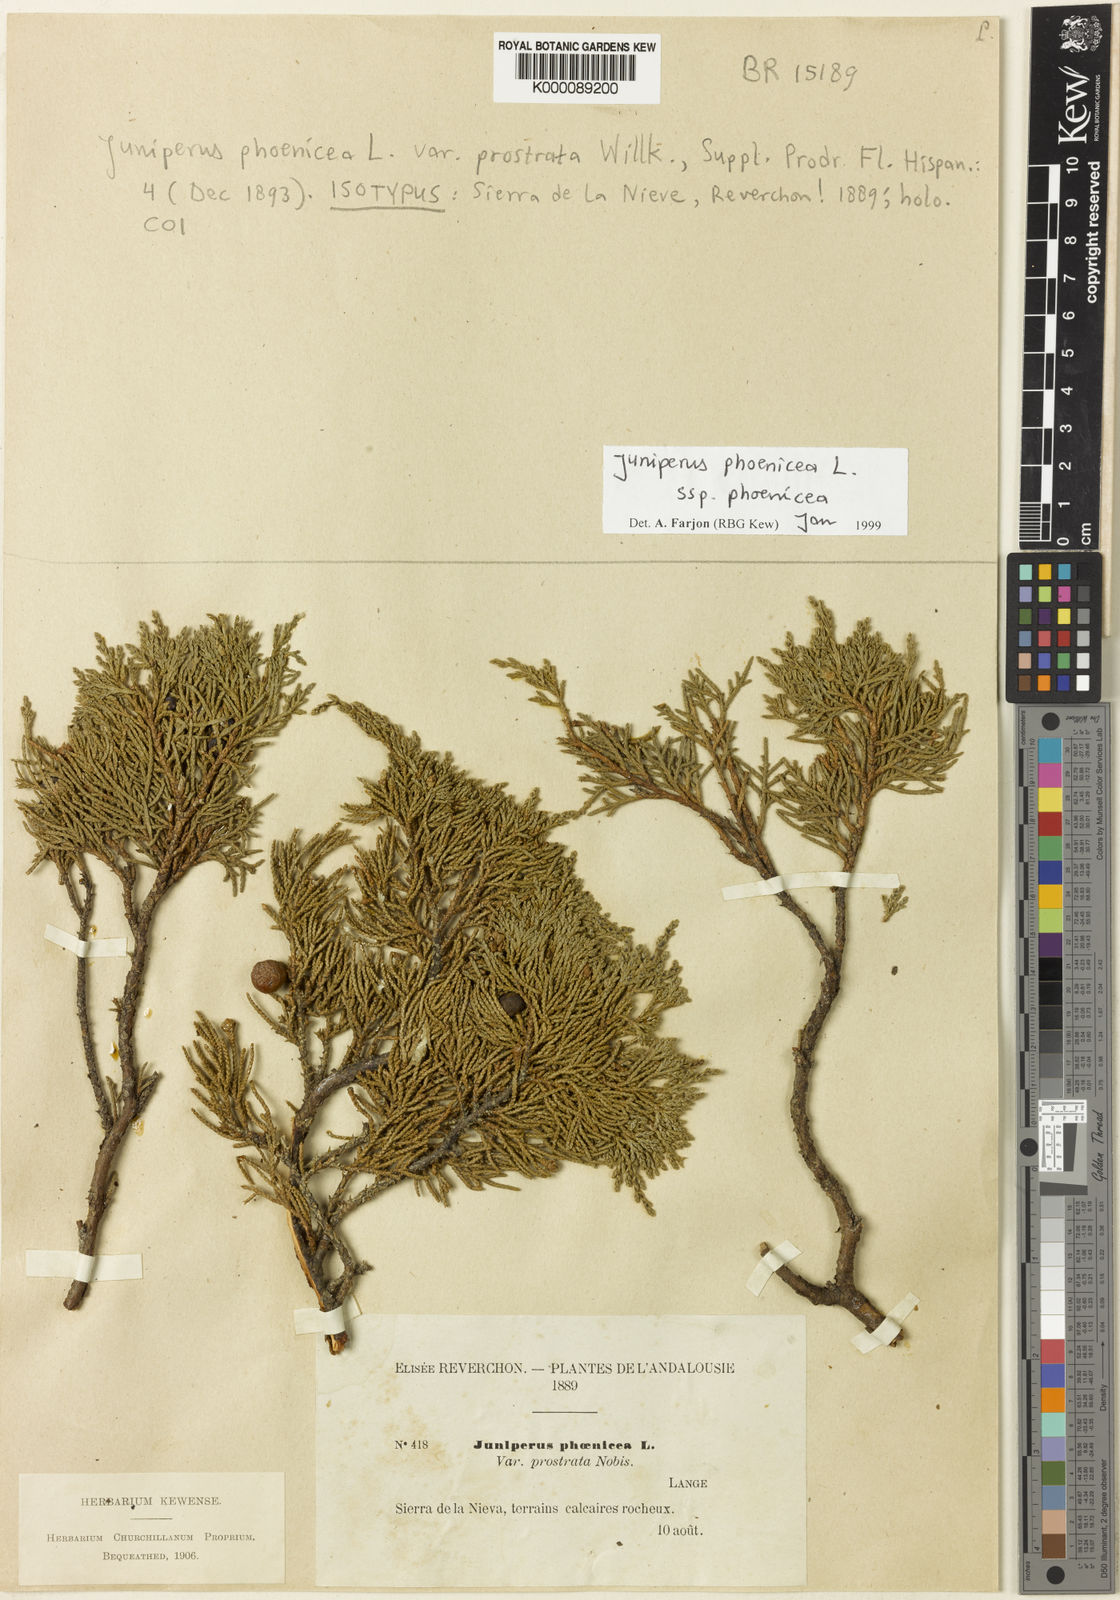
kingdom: Plantae
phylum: Tracheophyta
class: Pinopsida
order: Pinales
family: Cupressaceae
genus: Juniperus
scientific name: Juniperus phoenicea
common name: Phoenician juniper
